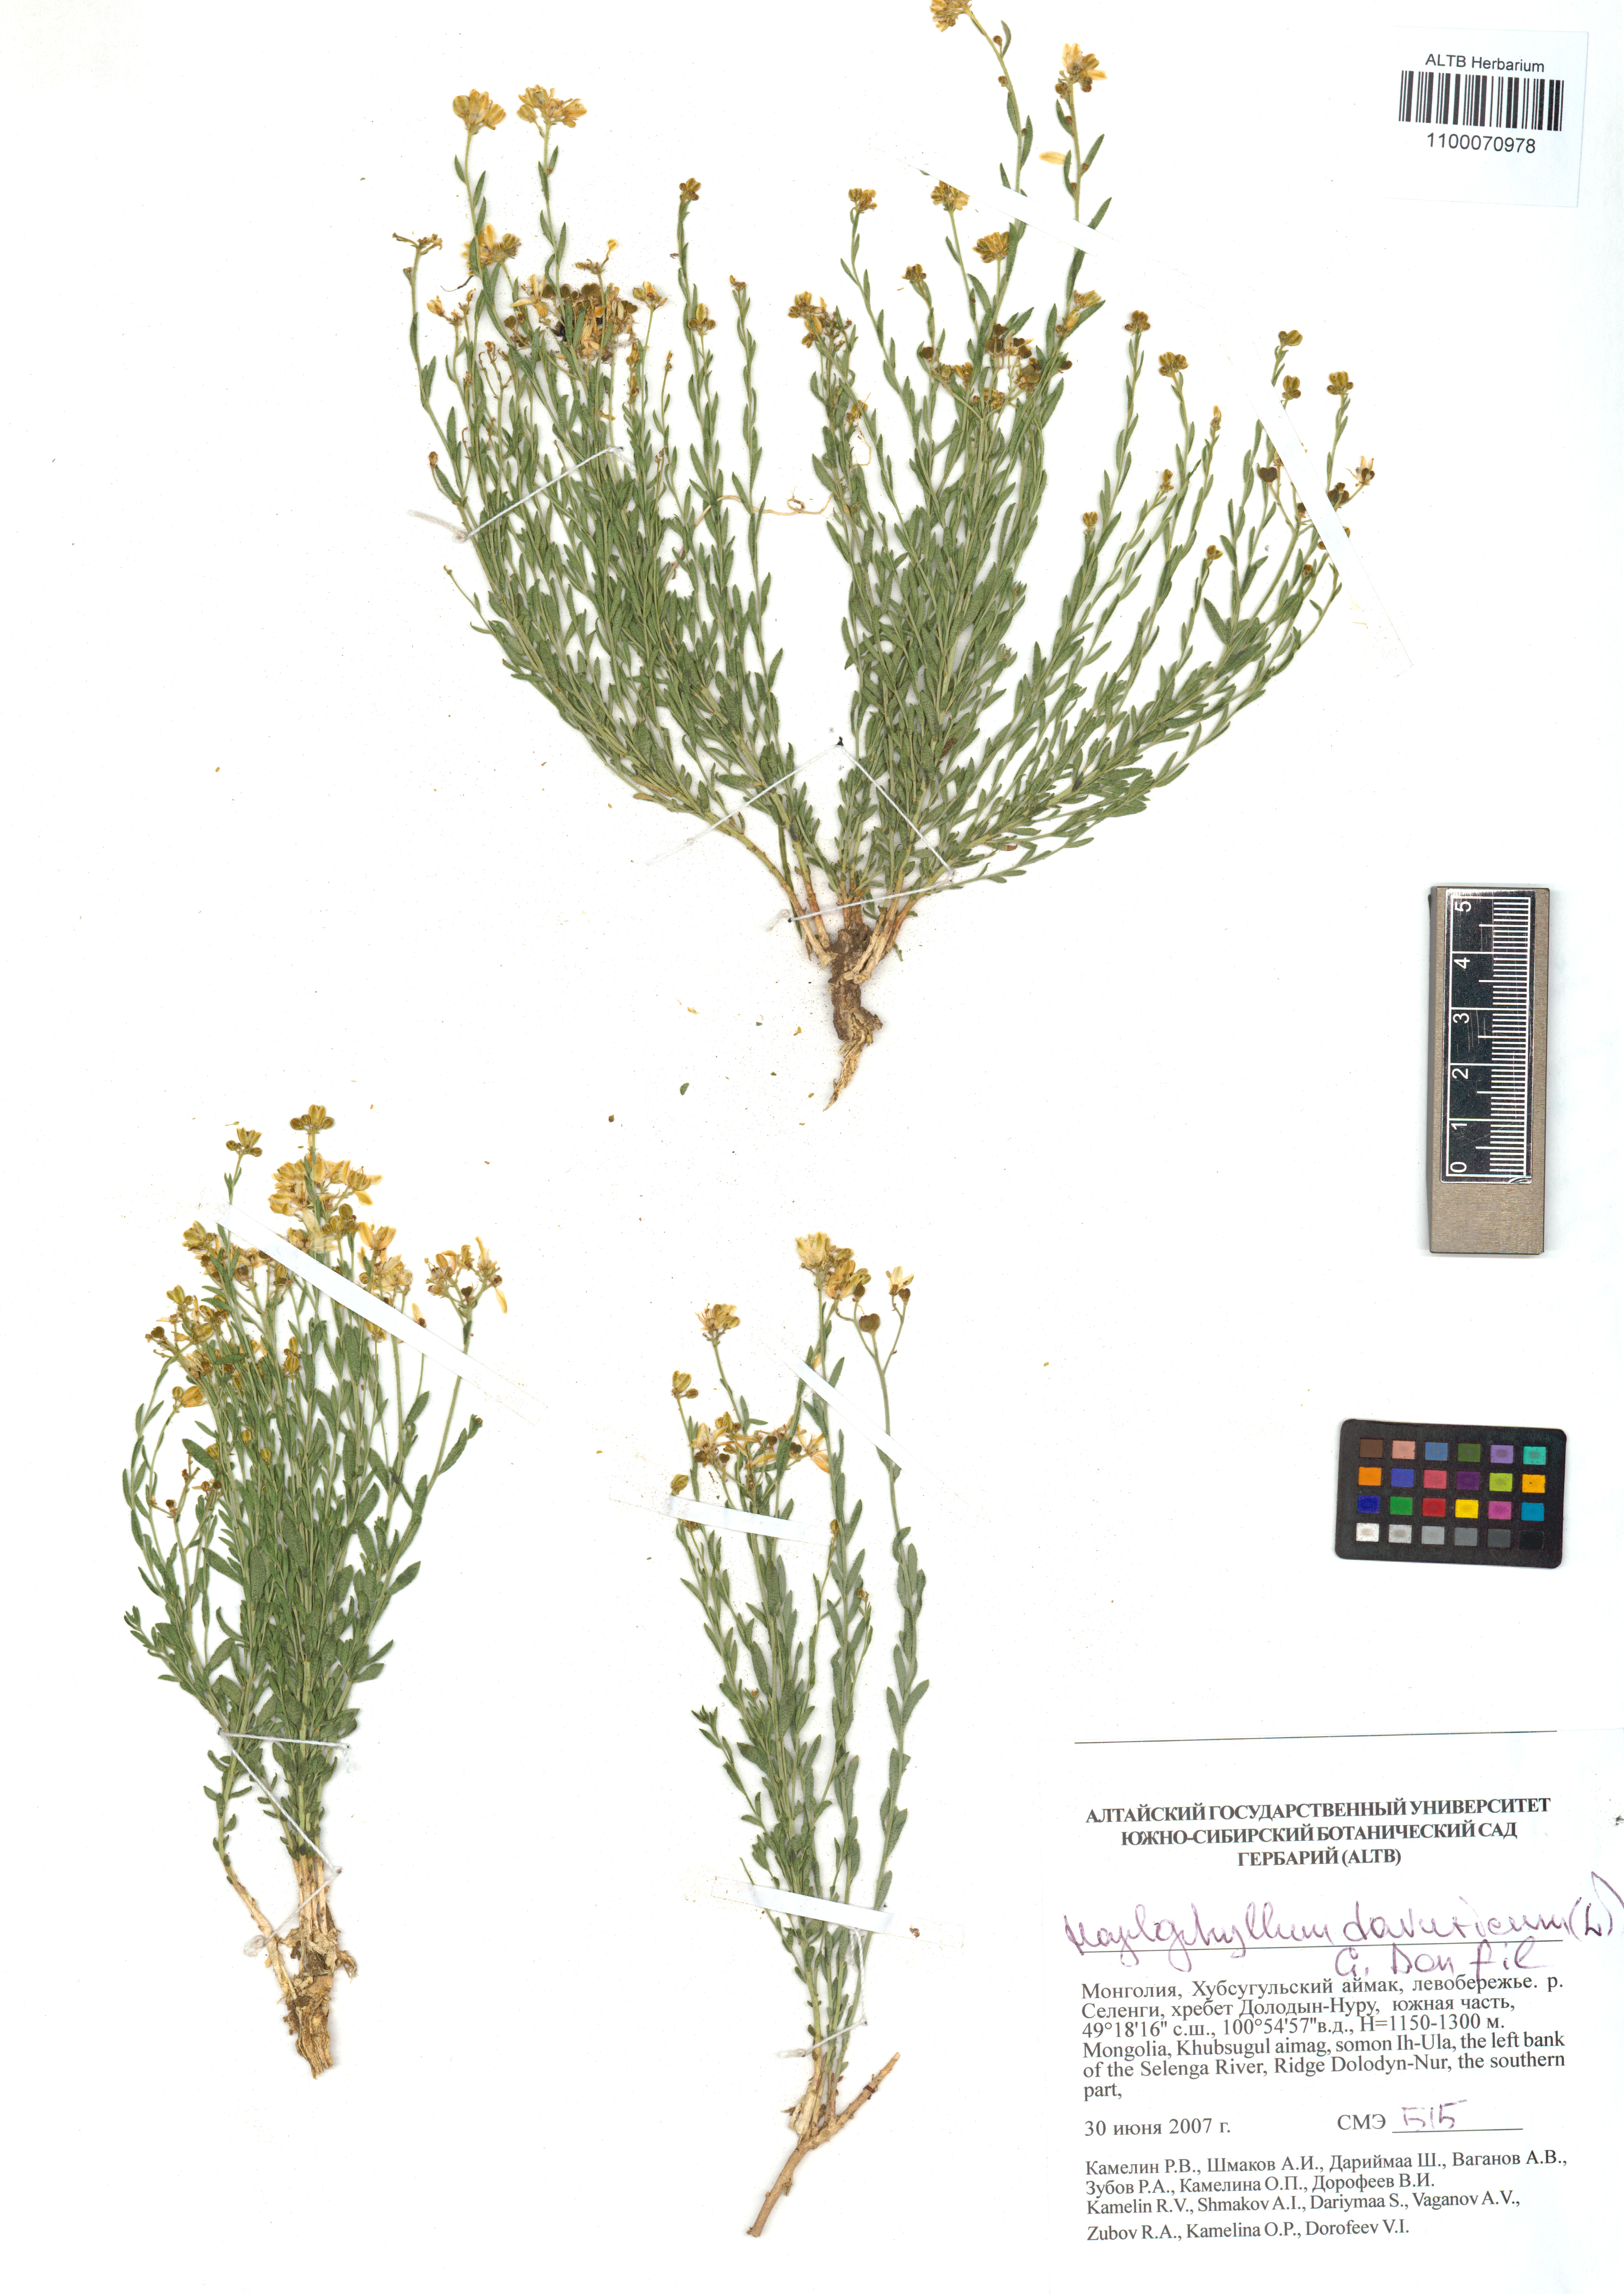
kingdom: Plantae
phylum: Tracheophyta
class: Magnoliopsida
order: Sapindales
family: Rutaceae
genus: Haplophyllum
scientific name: Haplophyllum dauricum
